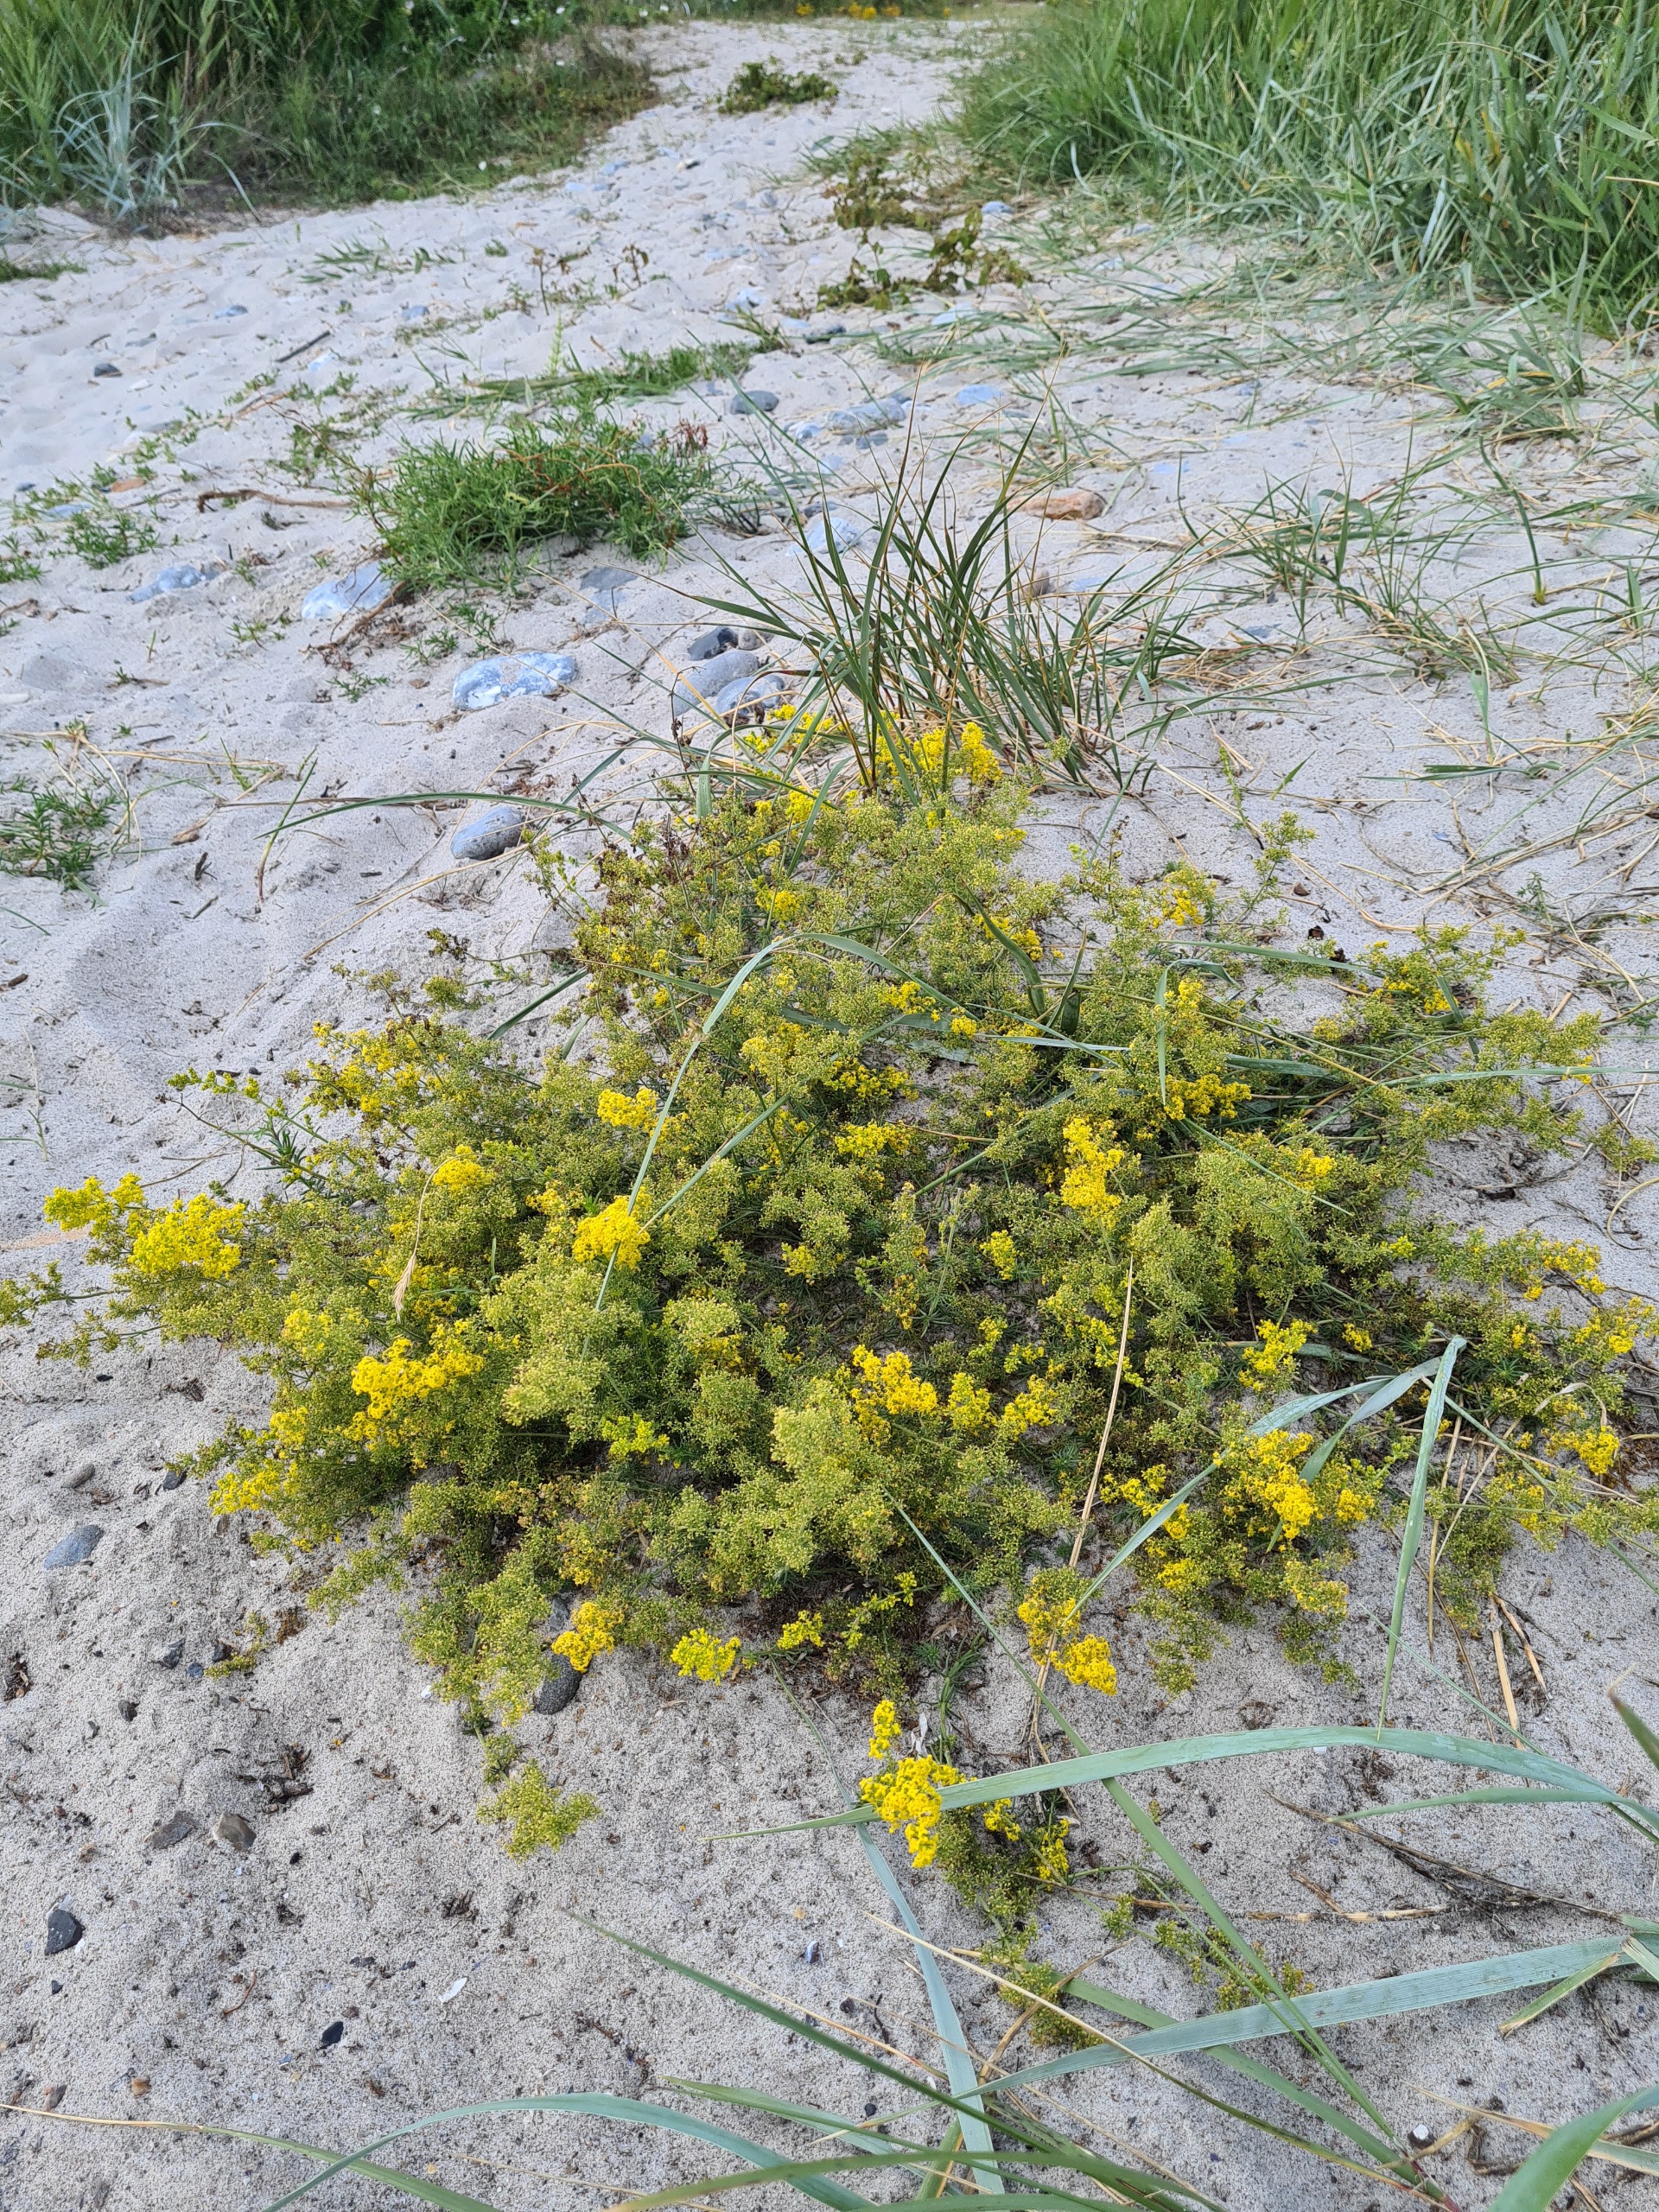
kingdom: Plantae
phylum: Tracheophyta
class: Magnoliopsida
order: Gentianales
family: Rubiaceae
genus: Galium
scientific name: Galium verum
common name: Gul snerre
